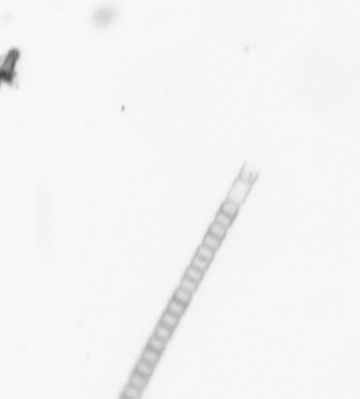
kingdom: Chromista
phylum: Ochrophyta
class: Bacillariophyceae
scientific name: Bacillariophyceae
